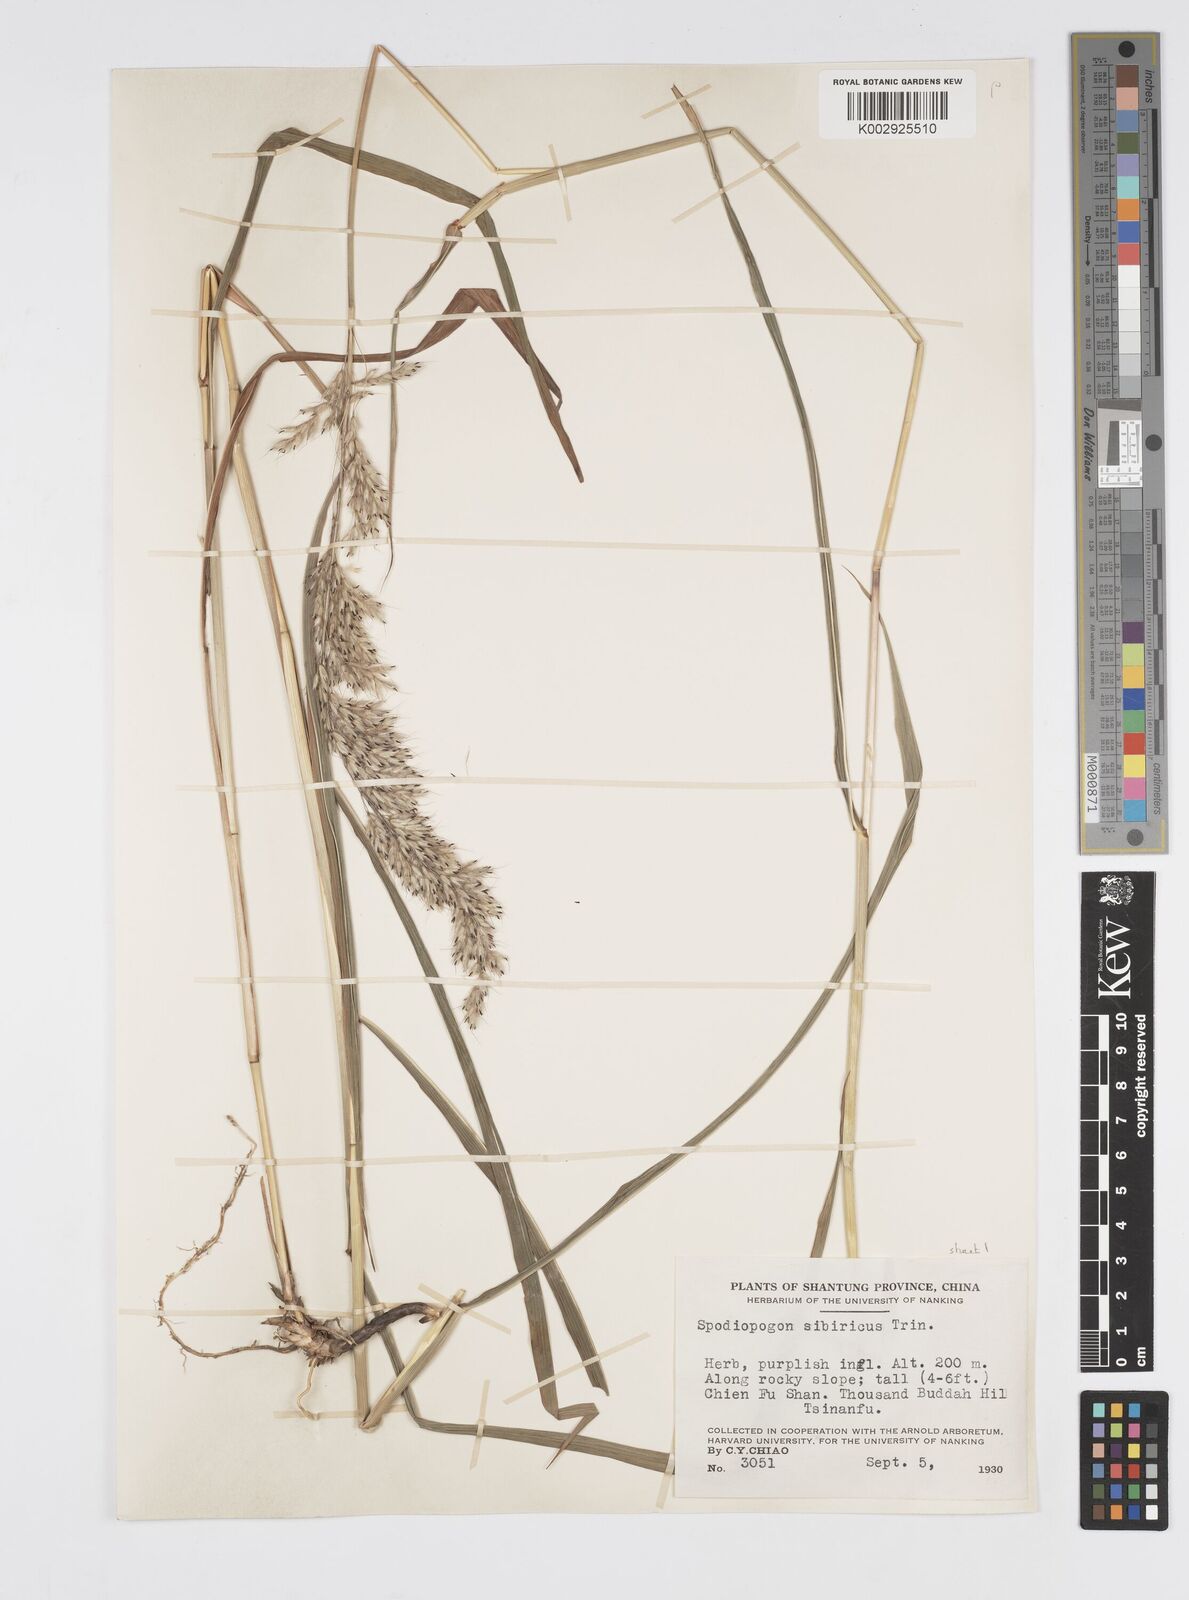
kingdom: Plantae
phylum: Tracheophyta
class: Liliopsida
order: Poales
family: Poaceae
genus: Spodiopogon
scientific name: Spodiopogon sibiricus
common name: Siberian graybeard
